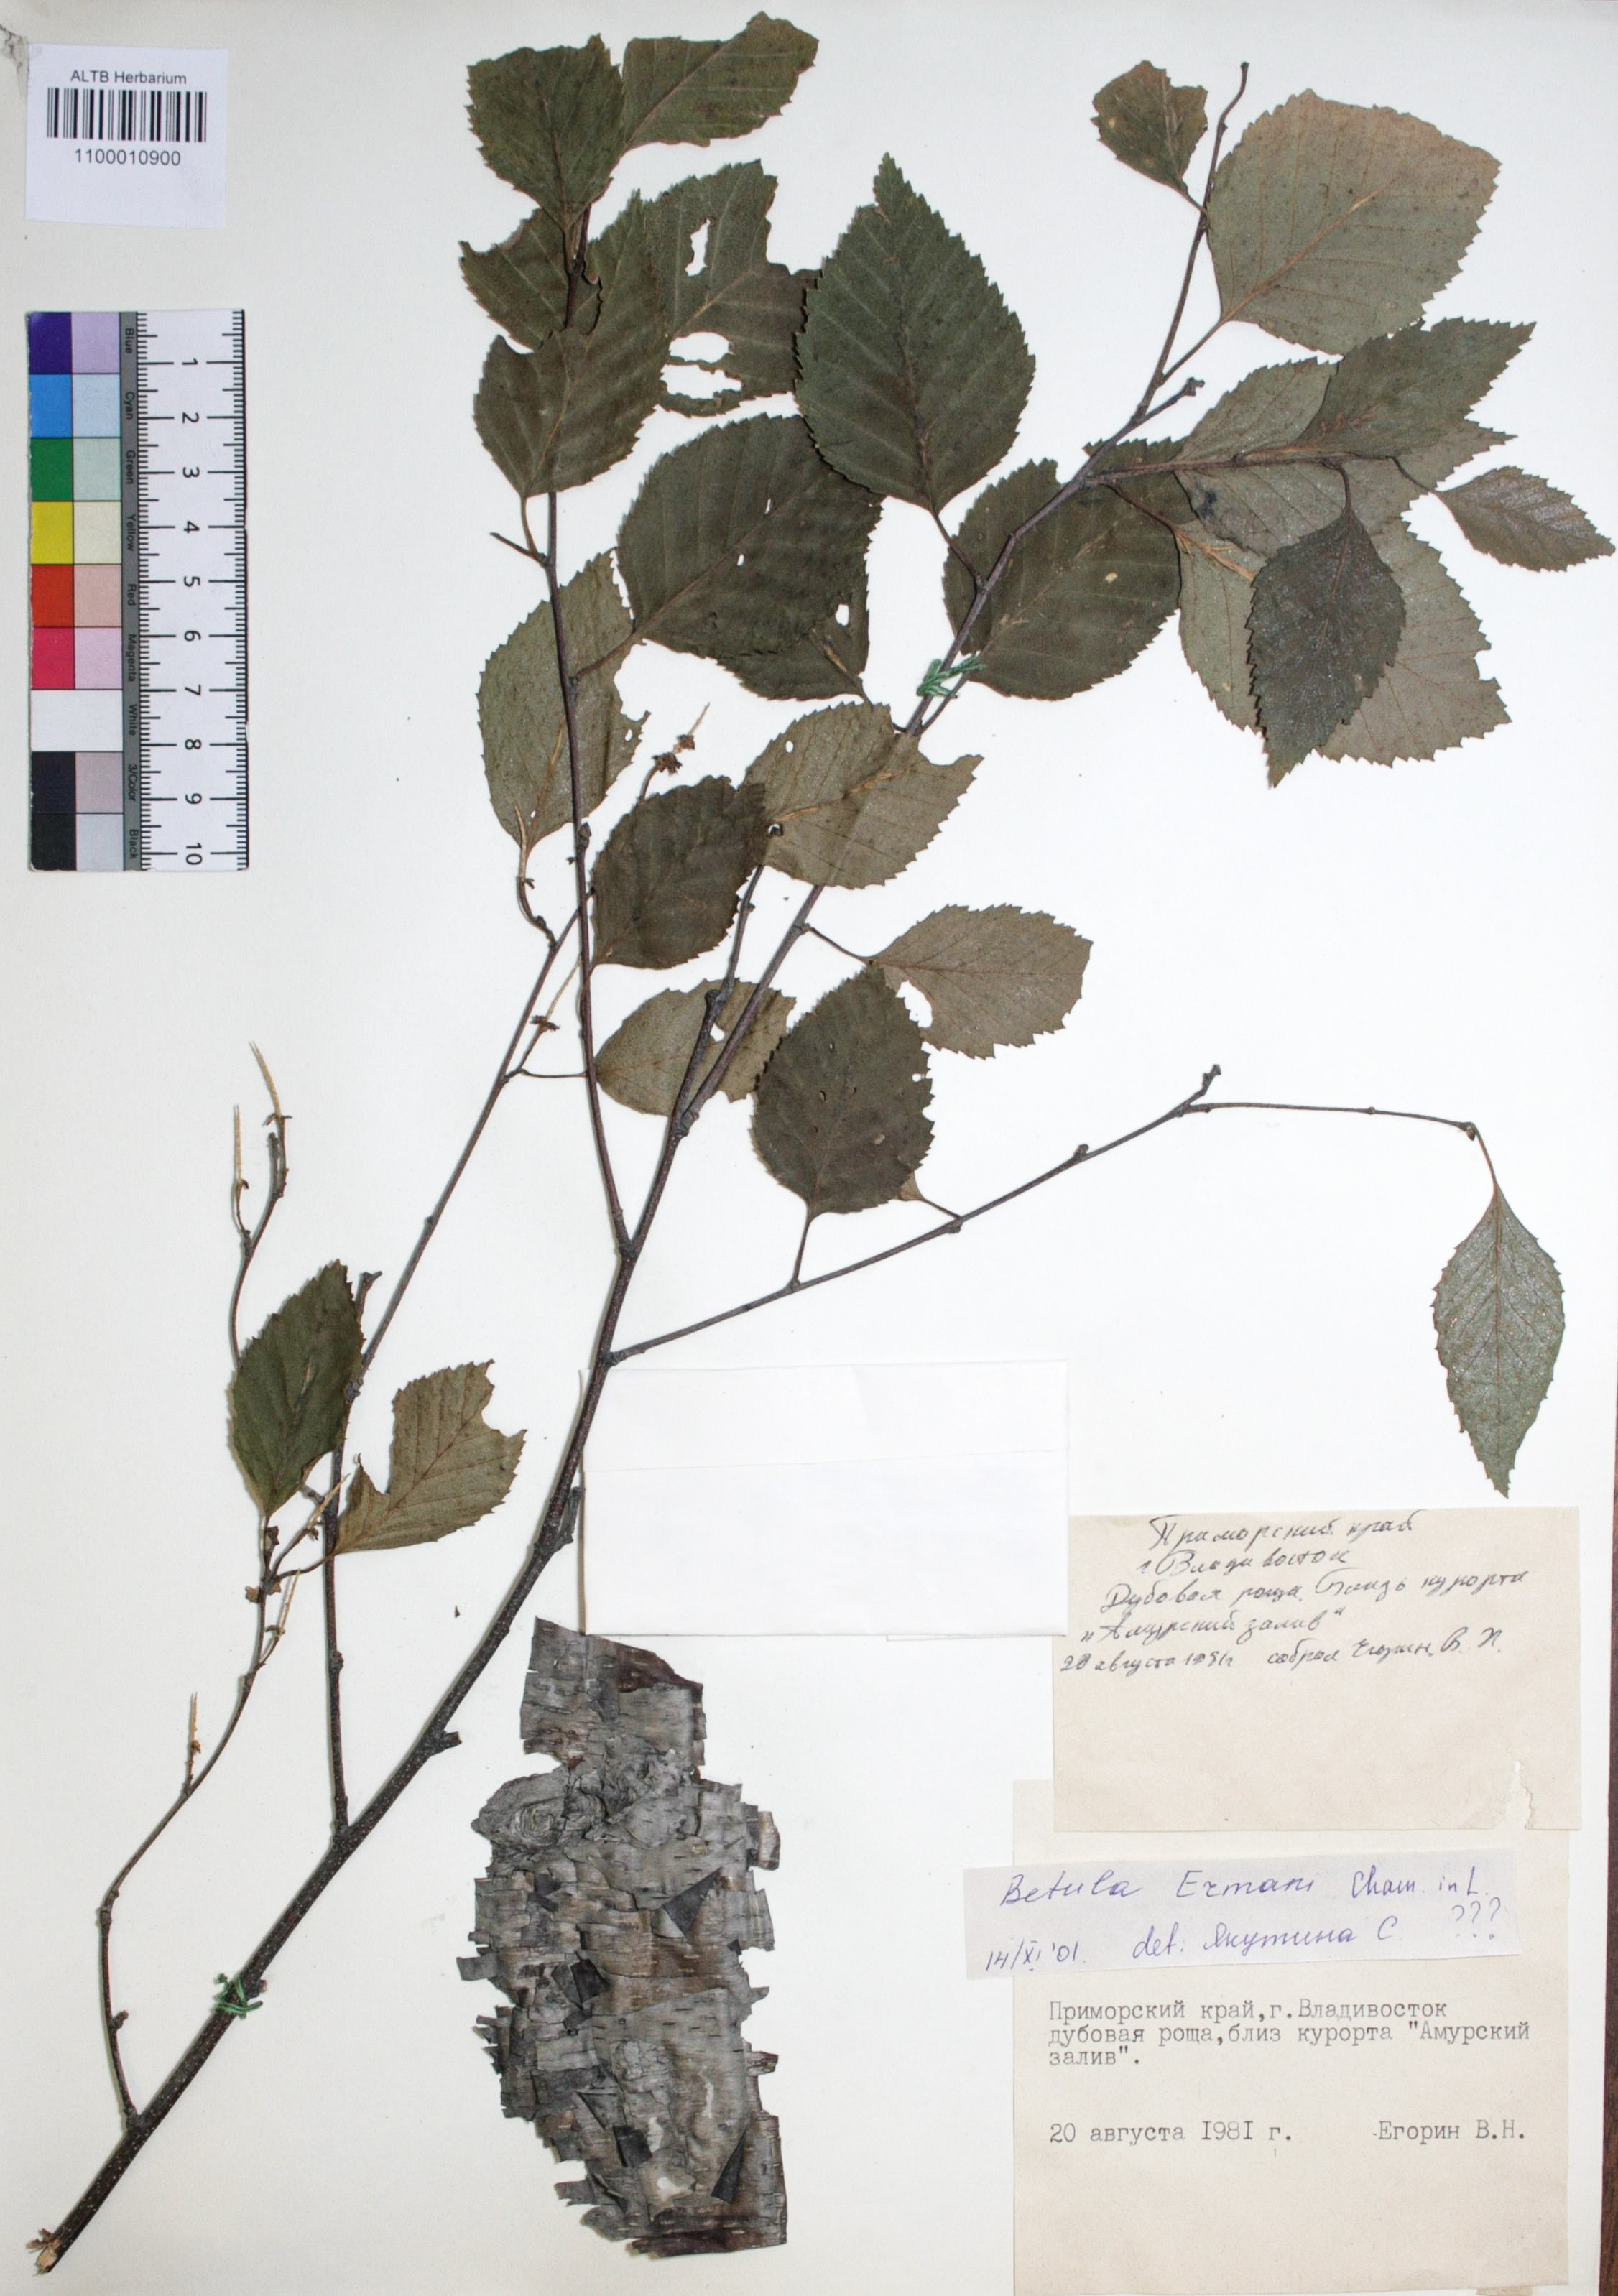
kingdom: Plantae
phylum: Tracheophyta
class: Magnoliopsida
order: Fagales
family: Betulaceae
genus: Betula
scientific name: Betula ermanii
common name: Erman's birch
